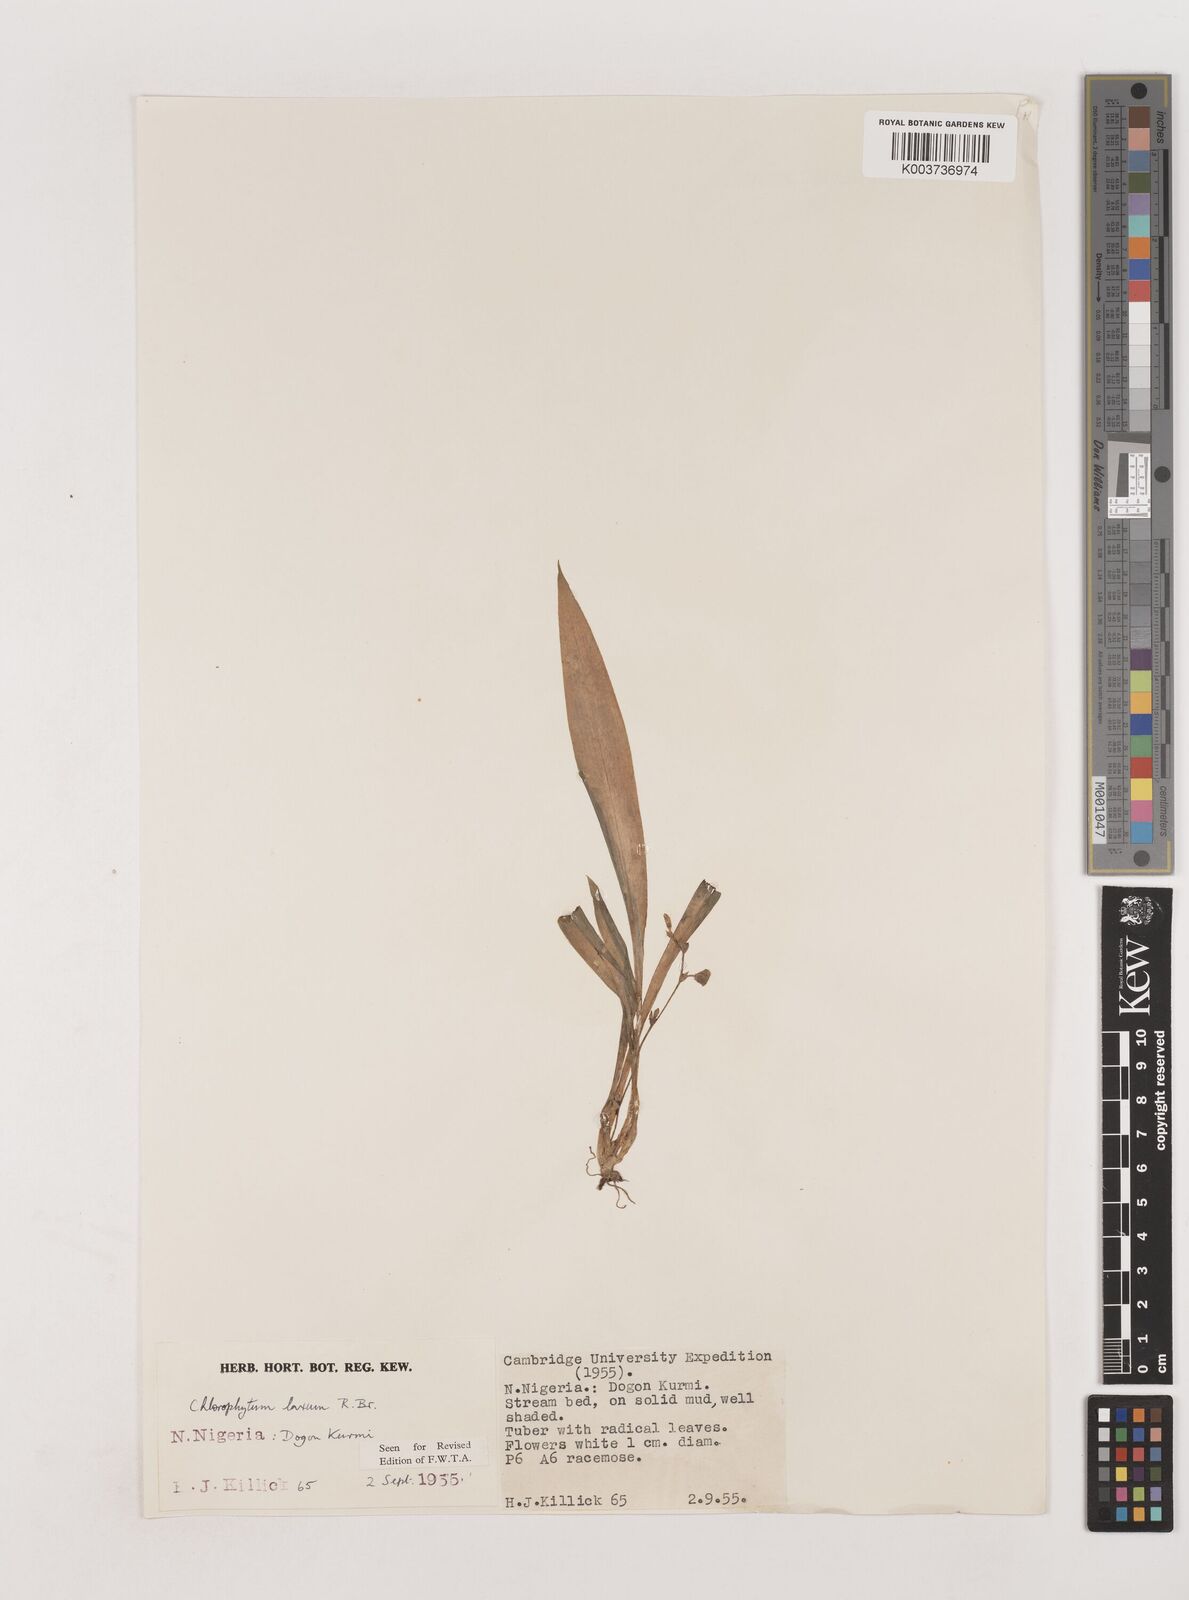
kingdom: Plantae
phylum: Tracheophyta
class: Liliopsida
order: Asparagales
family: Asparagaceae
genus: Chlorophytum
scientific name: Chlorophytum laxum
